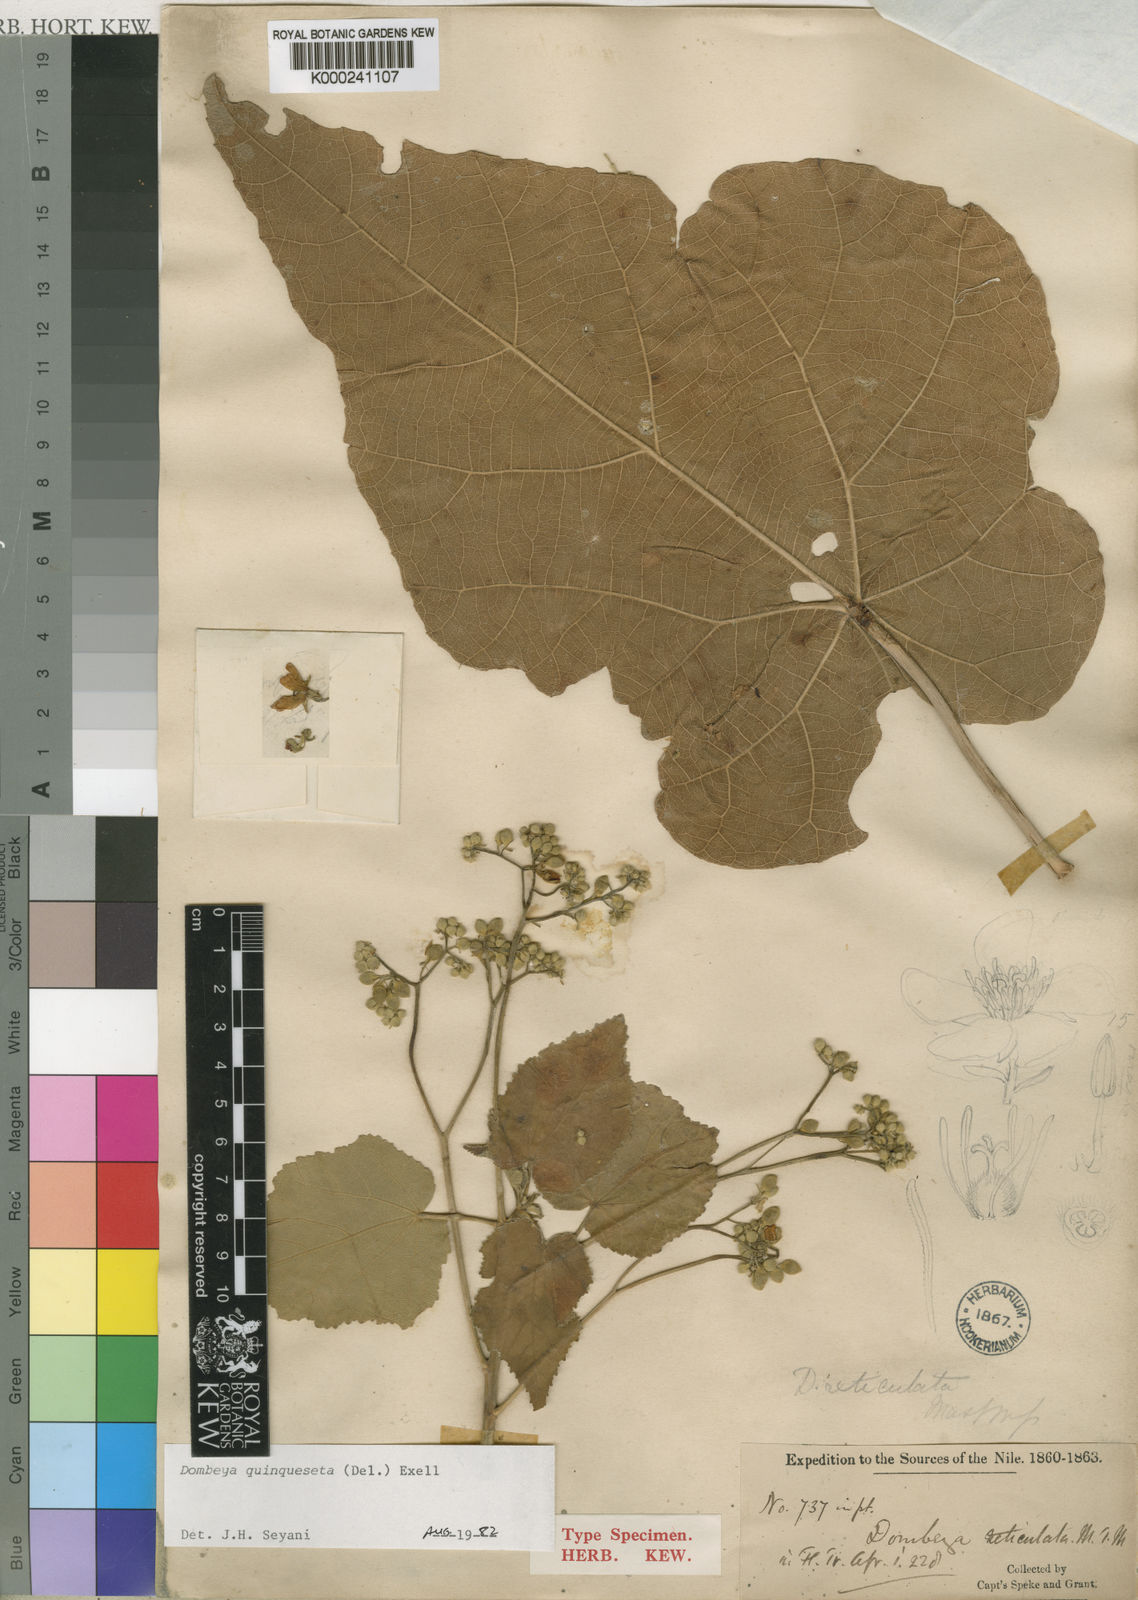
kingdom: Plantae
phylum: Tracheophyta
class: Magnoliopsida
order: Malvales
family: Malvaceae
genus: Dombeya
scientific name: Dombeya quinqueseta
